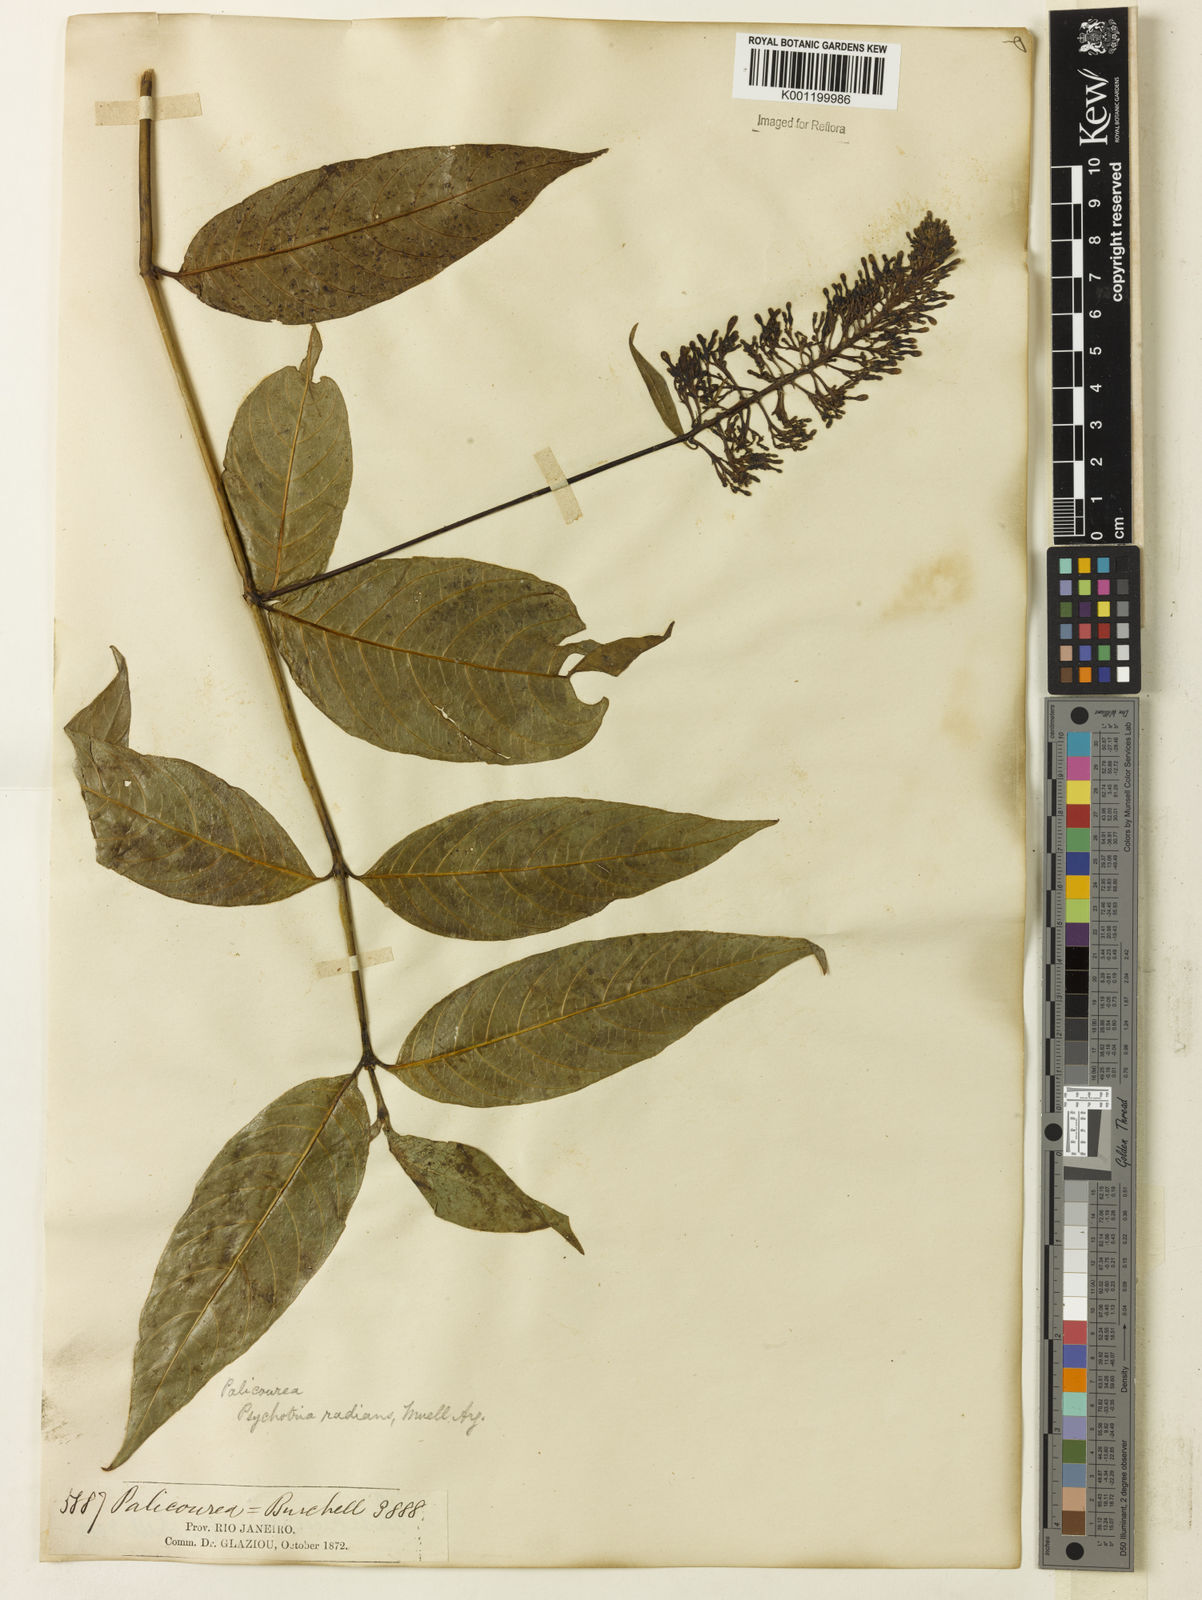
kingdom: Plantae
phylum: Tracheophyta
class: Magnoliopsida
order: Gentianales
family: Rubiaceae
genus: Palicourea
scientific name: Palicourea
